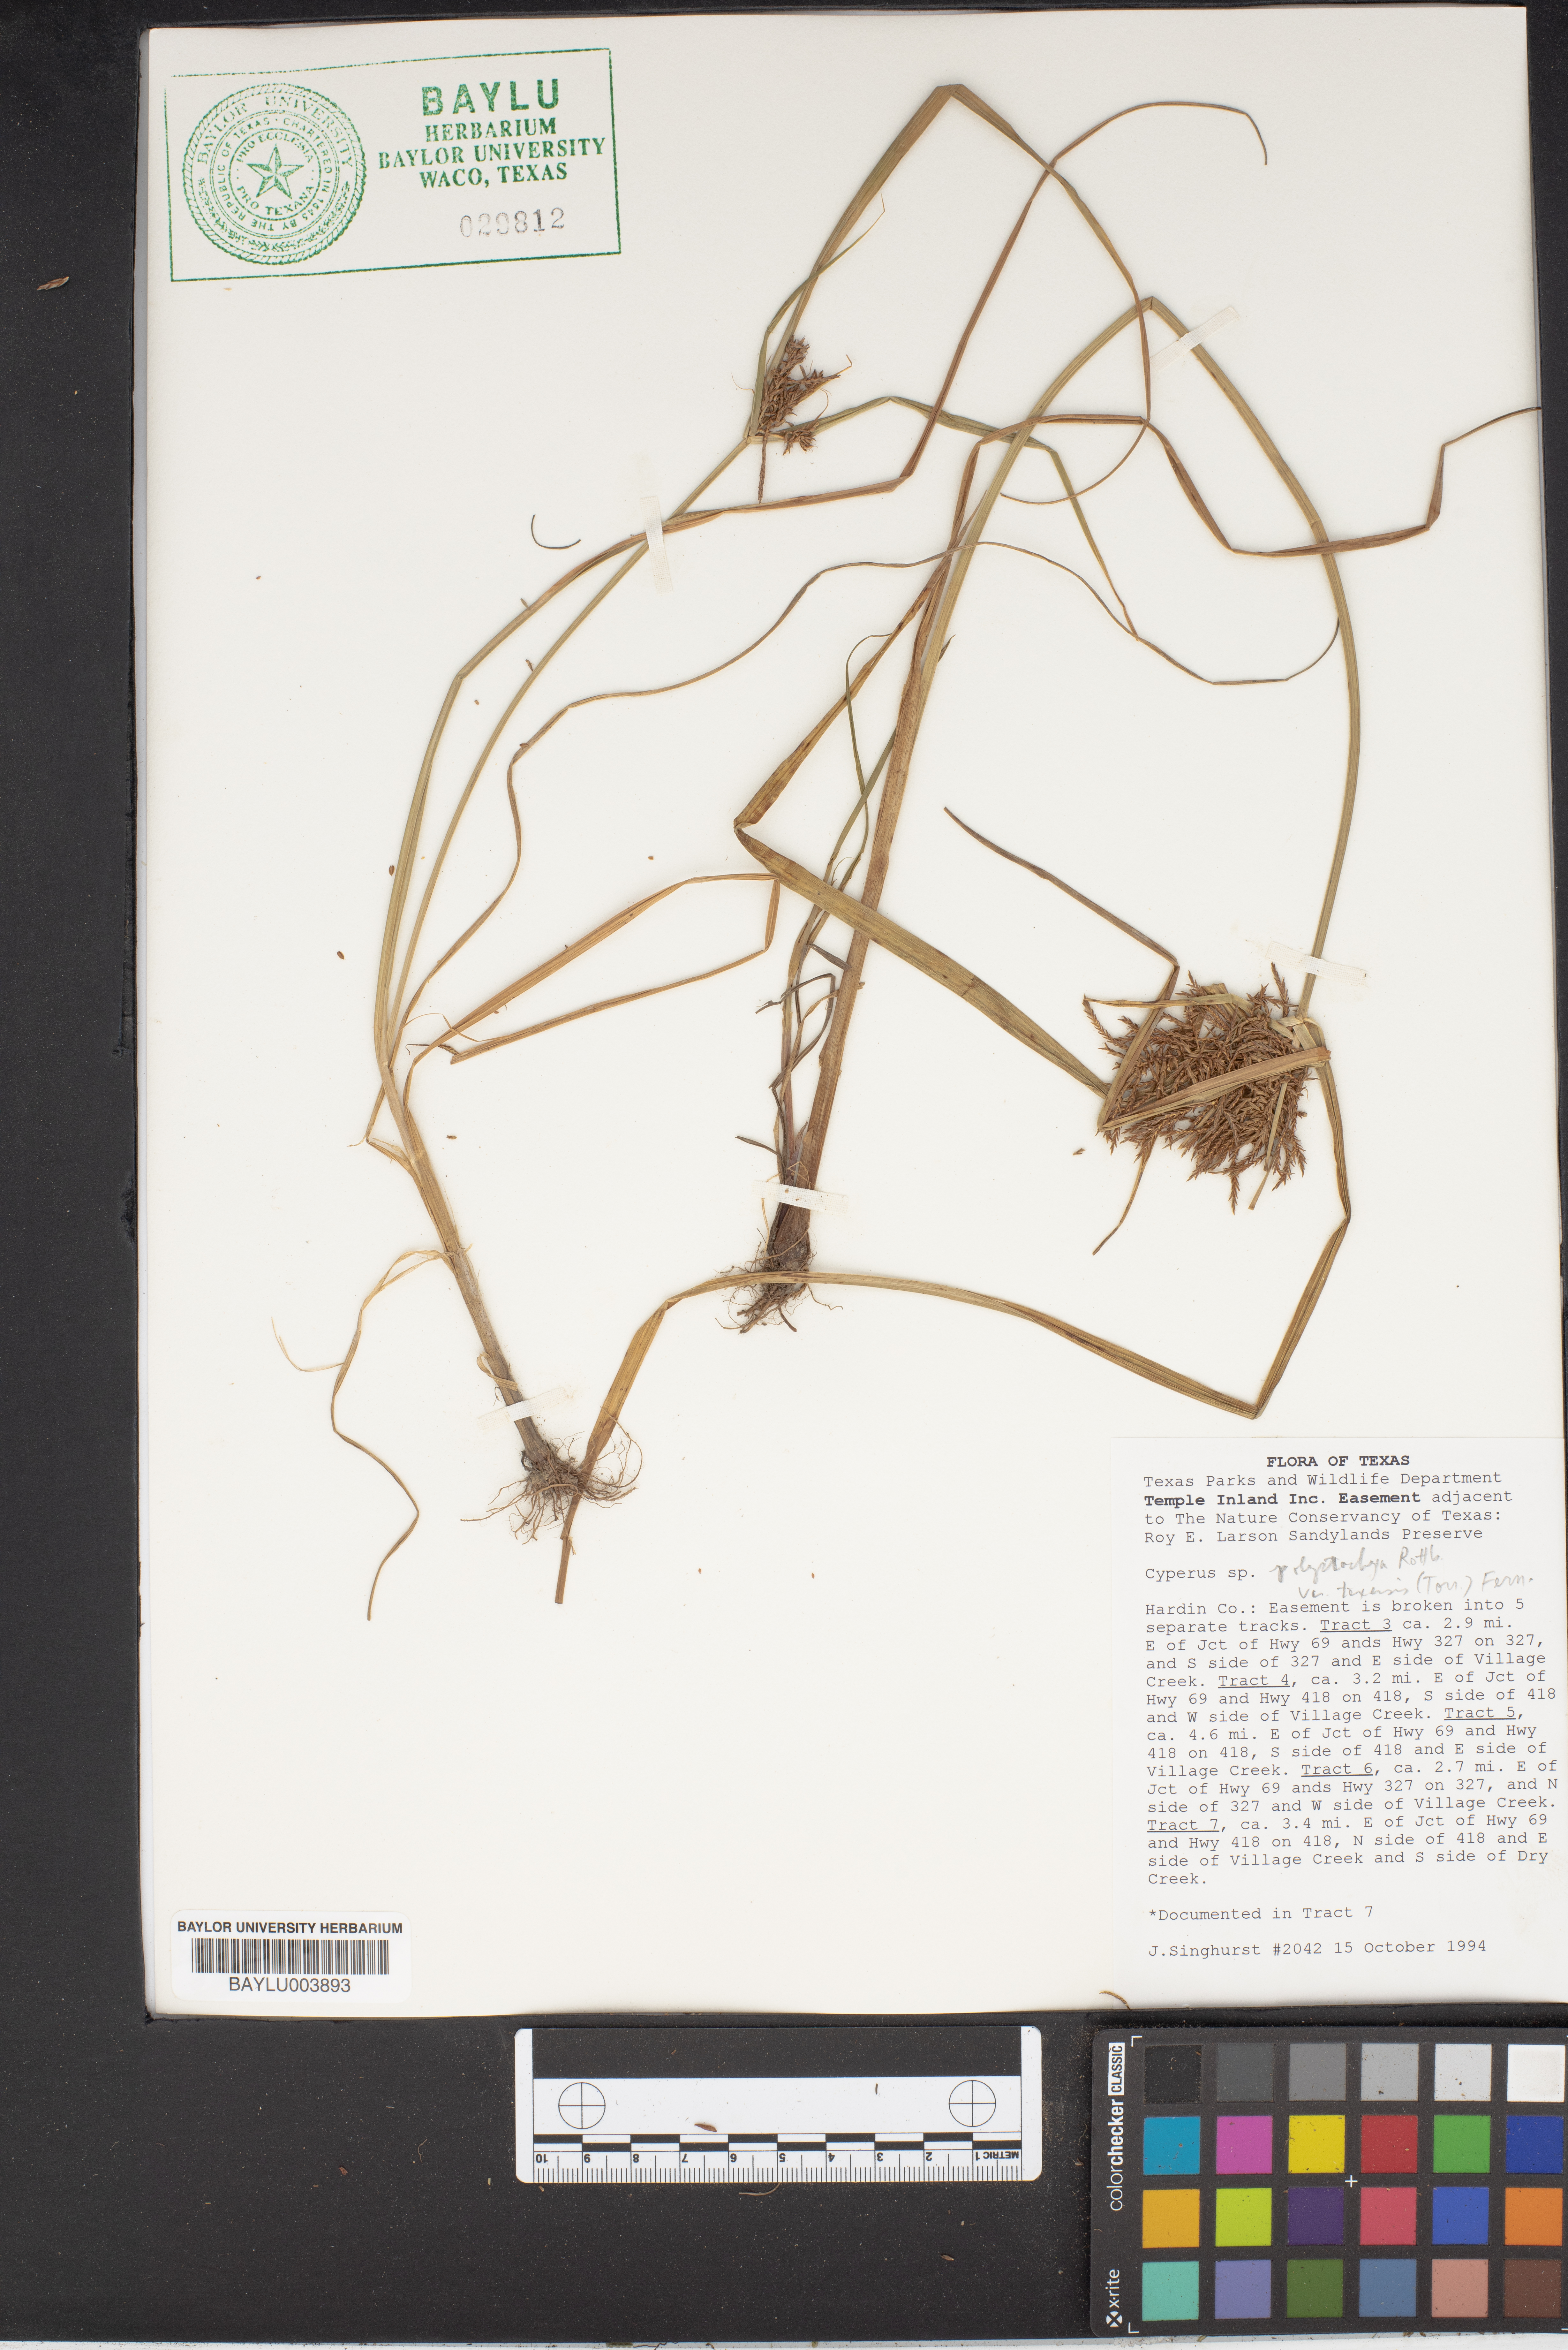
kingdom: Plantae
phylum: Tracheophyta
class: Liliopsida
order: Poales
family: Cyperaceae
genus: Cyperus
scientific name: Cyperus polystachyos
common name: Bunchy flat sedge
